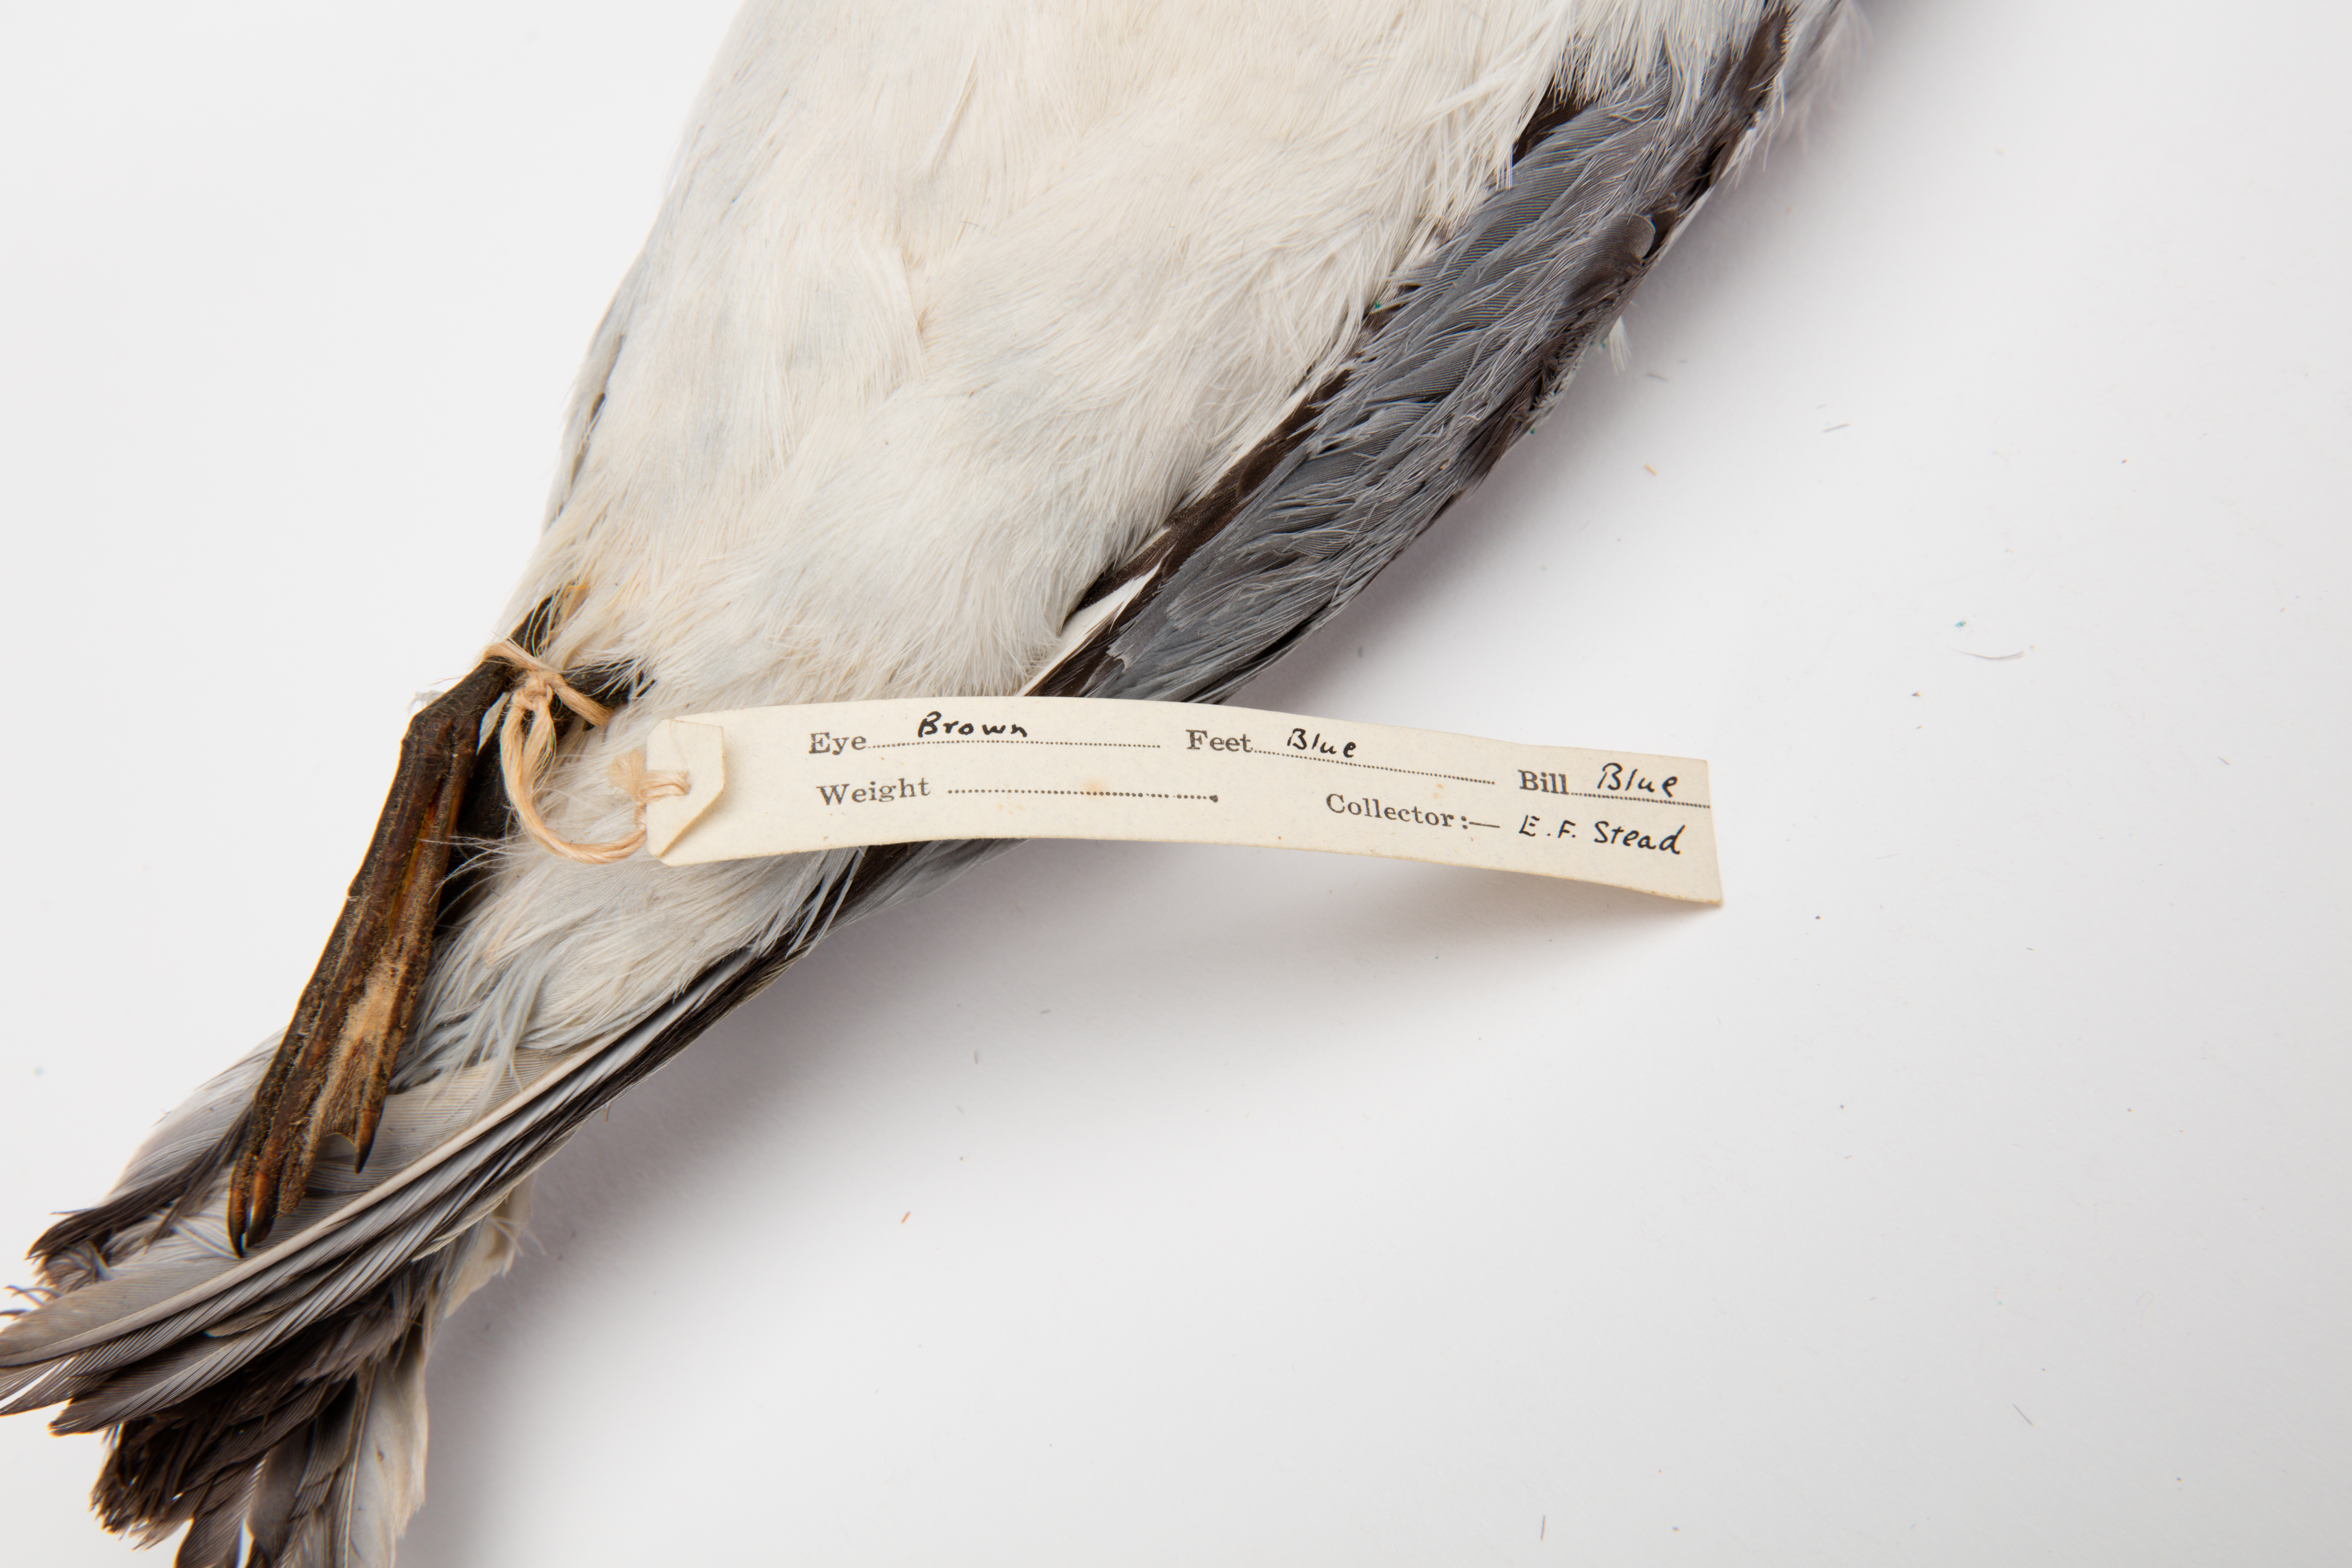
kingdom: Animalia
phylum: Chordata
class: Aves
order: Procellariiformes
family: Procellariidae
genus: Pachyptila
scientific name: Pachyptila turtur
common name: Fairy prion
